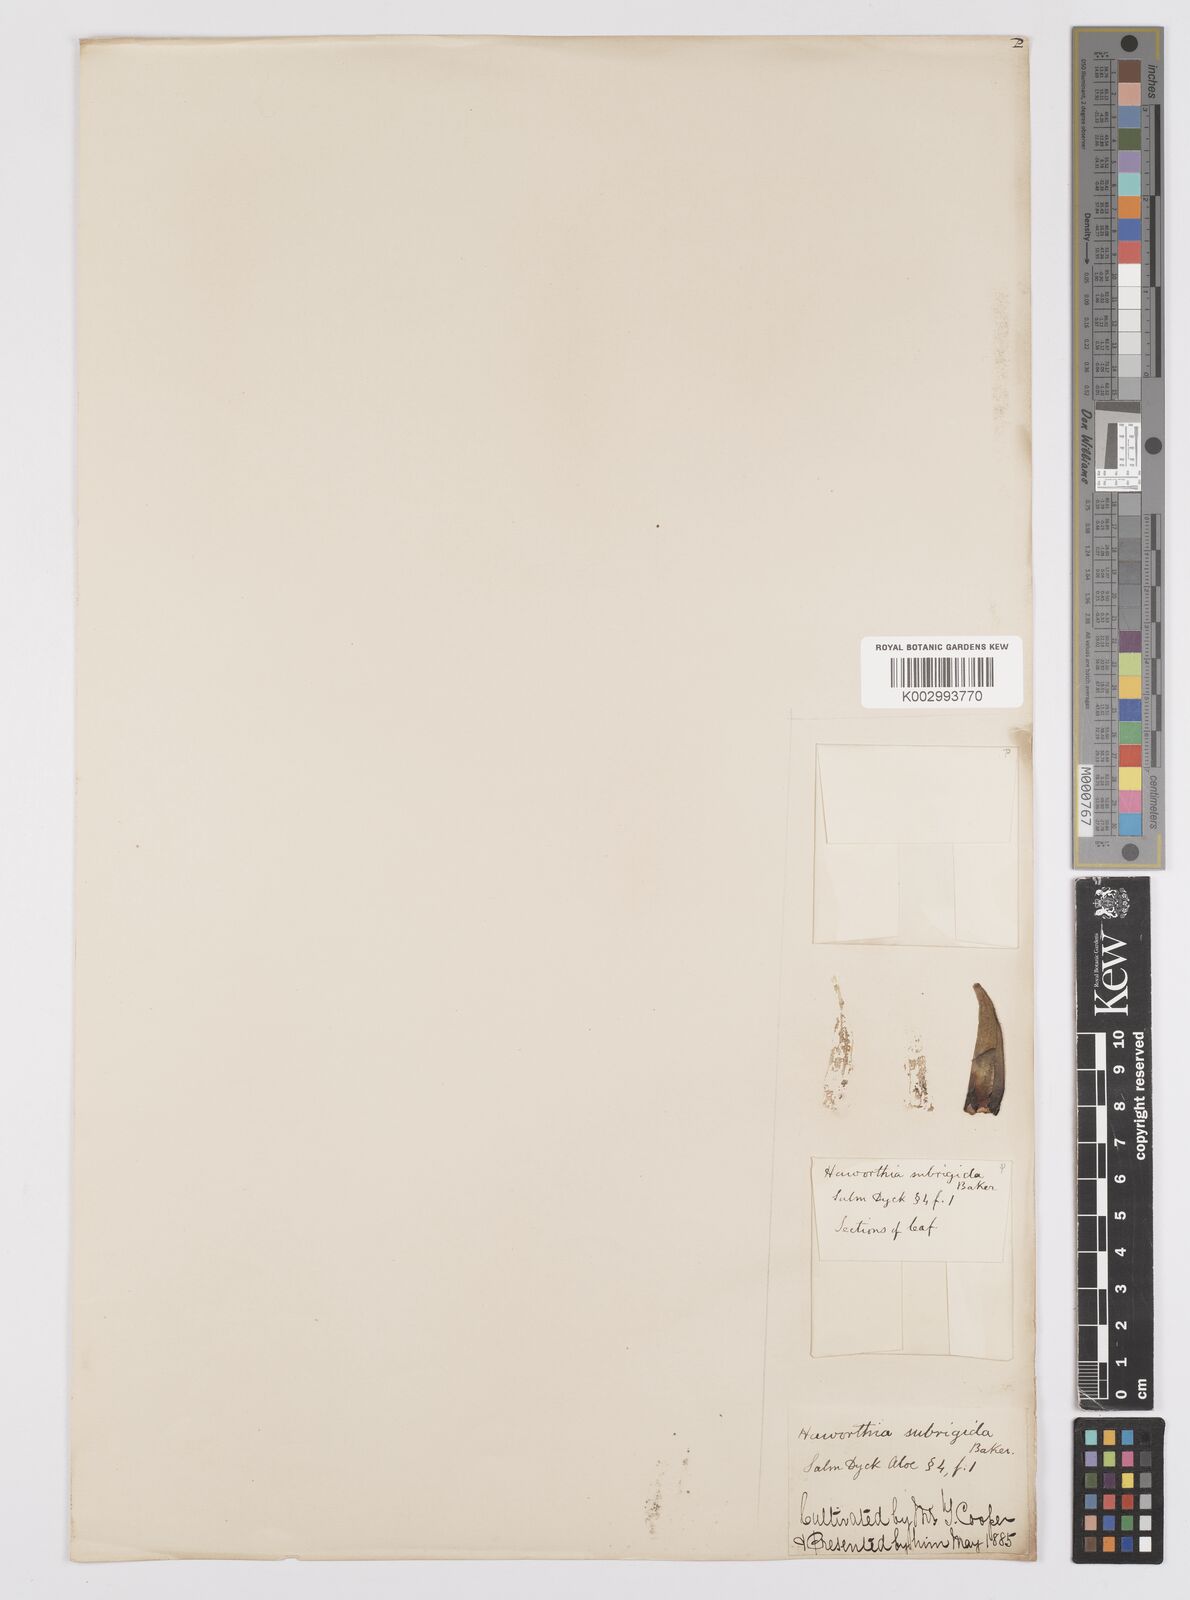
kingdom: Plantae
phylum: Tracheophyta
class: Liliopsida
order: Asparagales
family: Asphodelaceae
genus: Haworthia
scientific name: Haworthia
